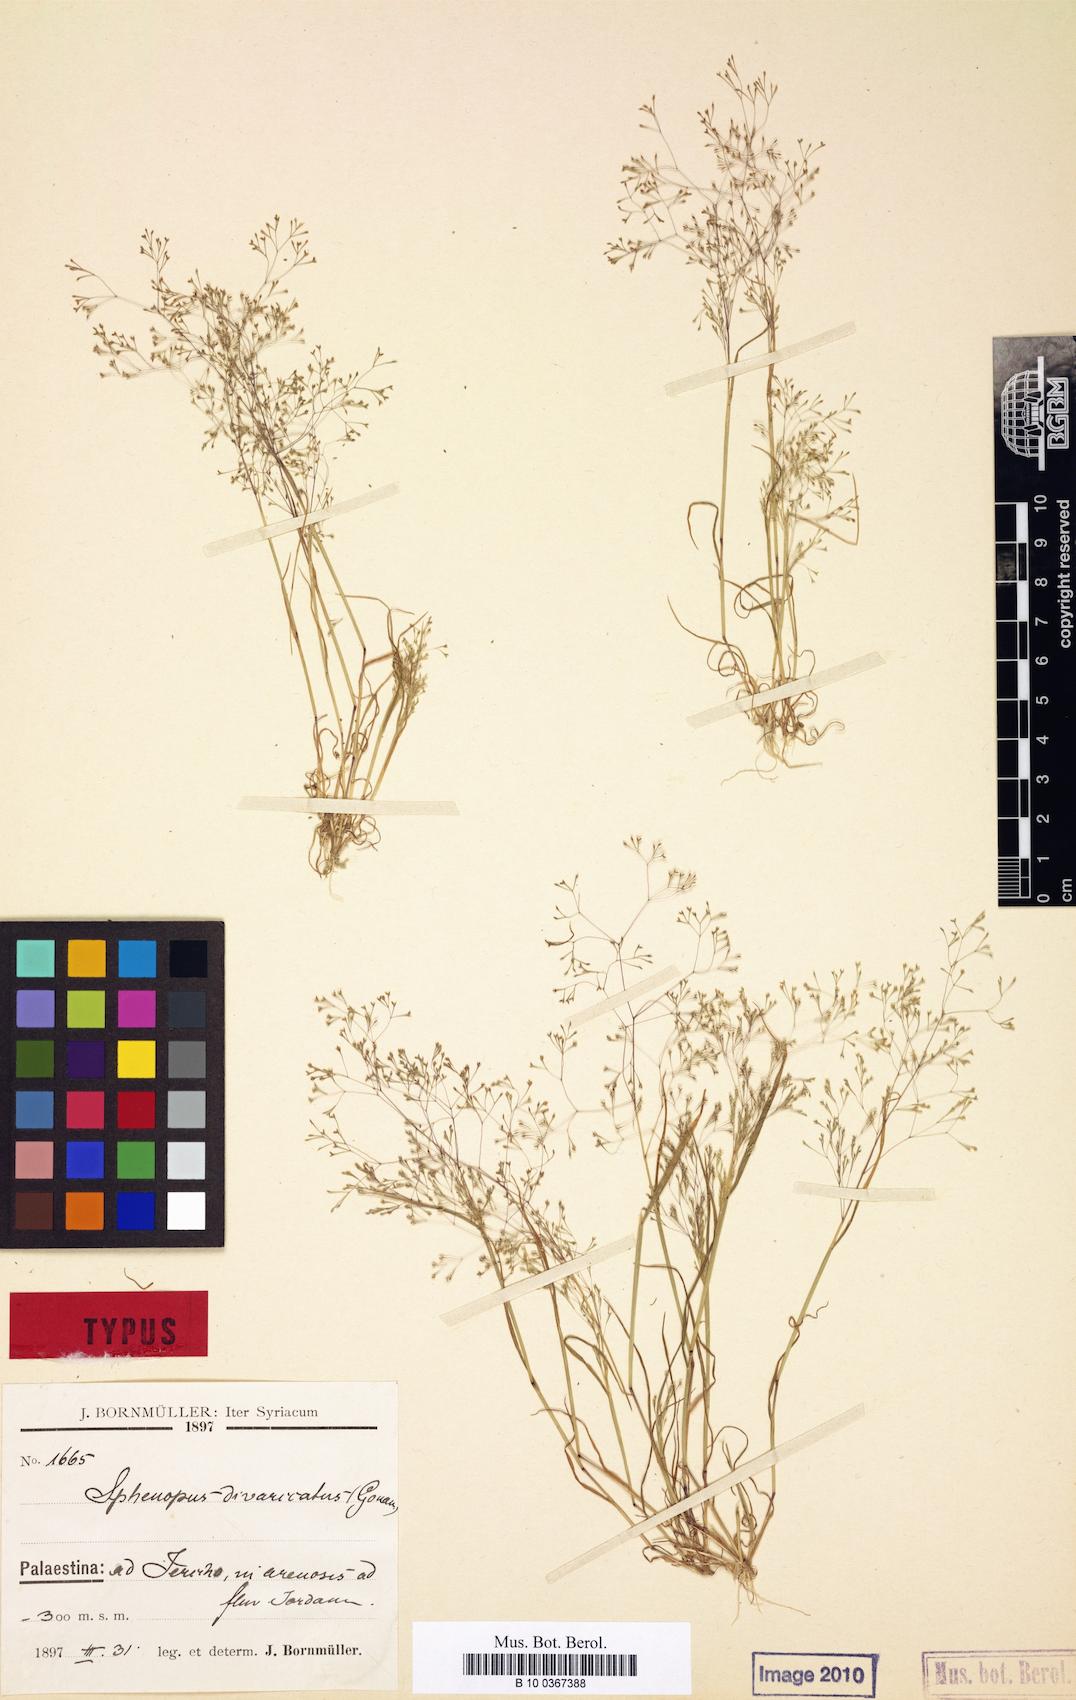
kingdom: Plantae
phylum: Tracheophyta
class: Liliopsida
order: Poales
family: Poaceae
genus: Sphenopus
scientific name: Sphenopus divaricatus
